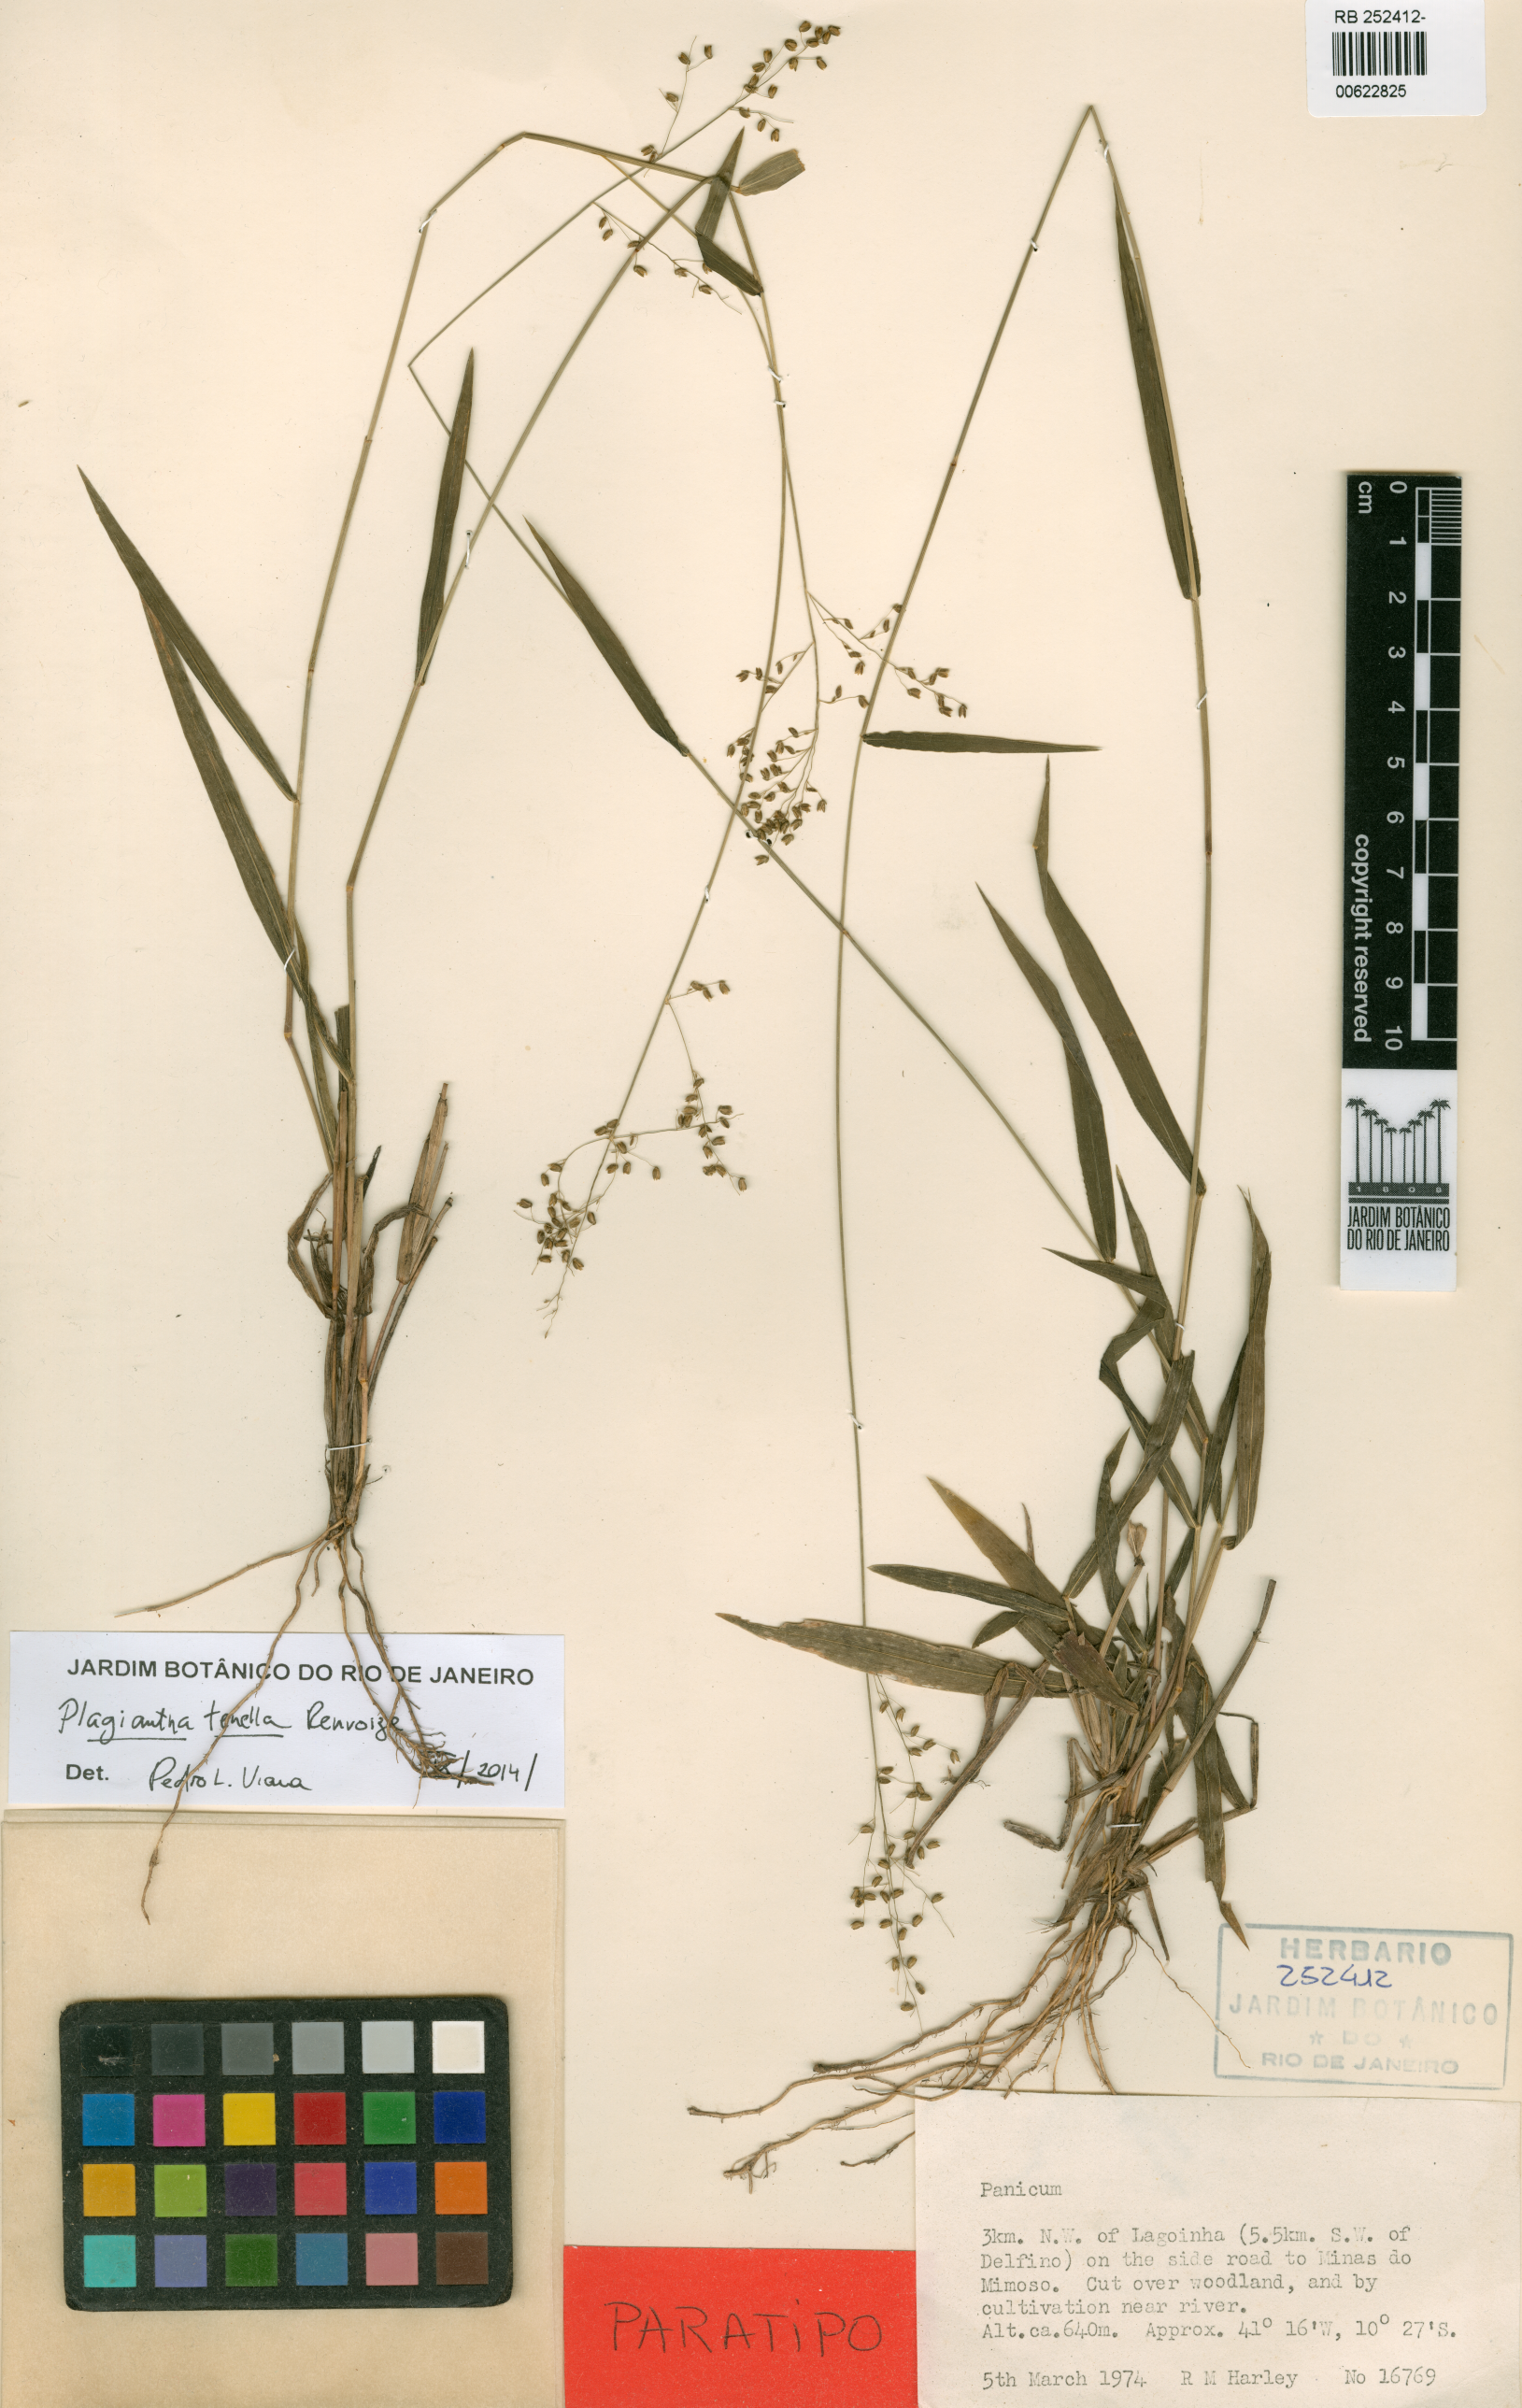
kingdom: Plantae
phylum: Tracheophyta
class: Liliopsida
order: Poales
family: Poaceae
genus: Plagiantha
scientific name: Plagiantha tenella
